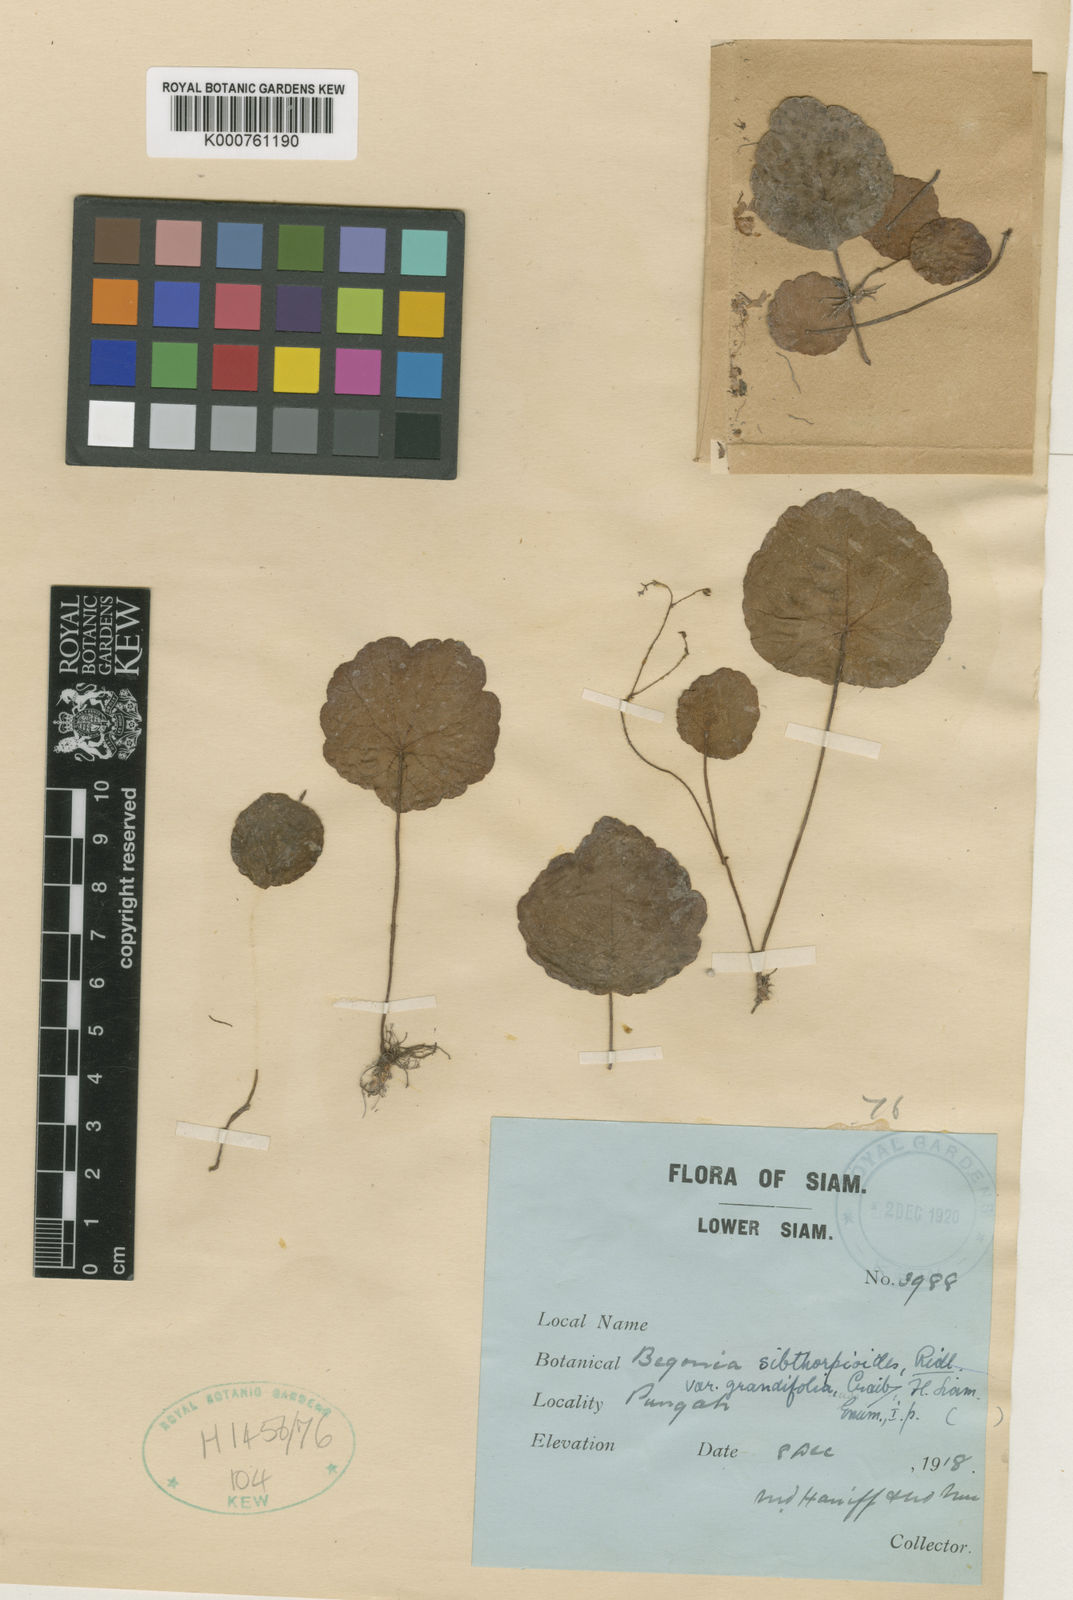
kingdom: Plantae
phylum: Tracheophyta
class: Magnoliopsida
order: Cucurbitales
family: Begoniaceae
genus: Begonia
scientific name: Begonia pumilio
